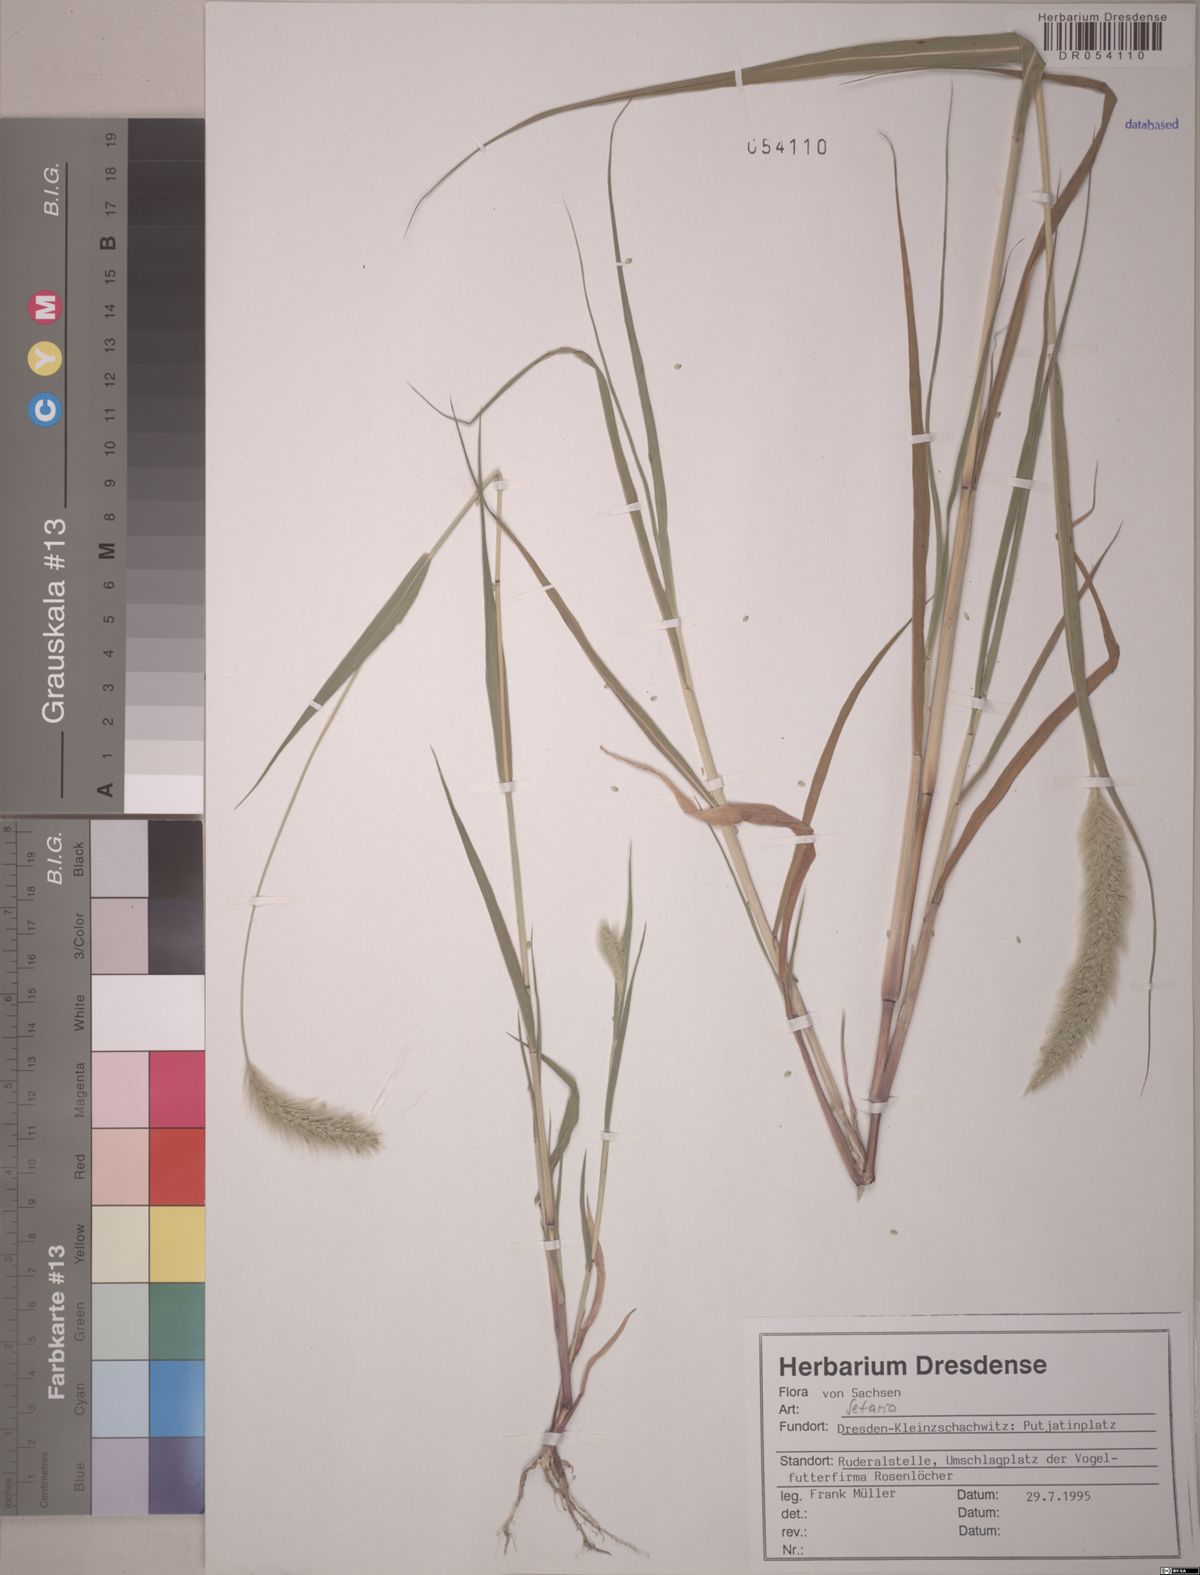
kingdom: Plantae
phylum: Tracheophyta
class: Liliopsida
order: Poales
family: Poaceae
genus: Setaria
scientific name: Setaria
